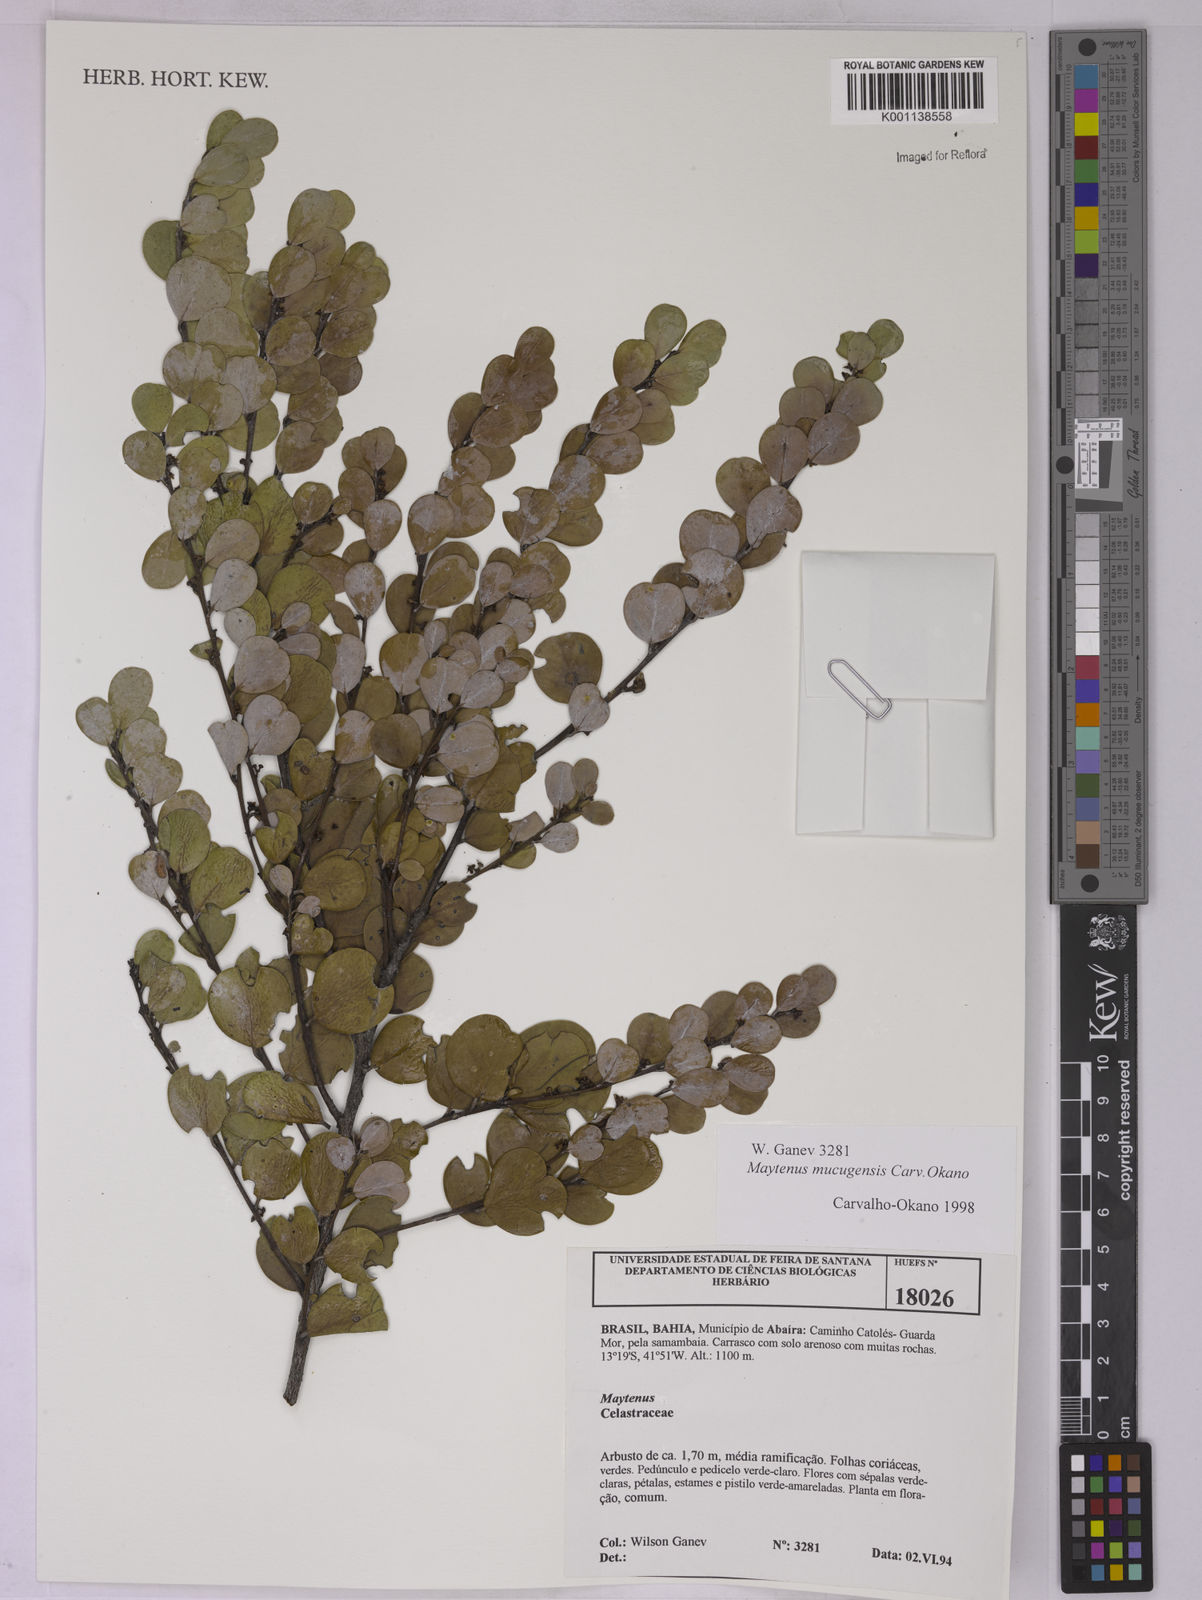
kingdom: Plantae
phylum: Tracheophyta
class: Magnoliopsida
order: Celastrales
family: Celastraceae
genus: Monteverdia
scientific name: Monteverdia mucugensis
